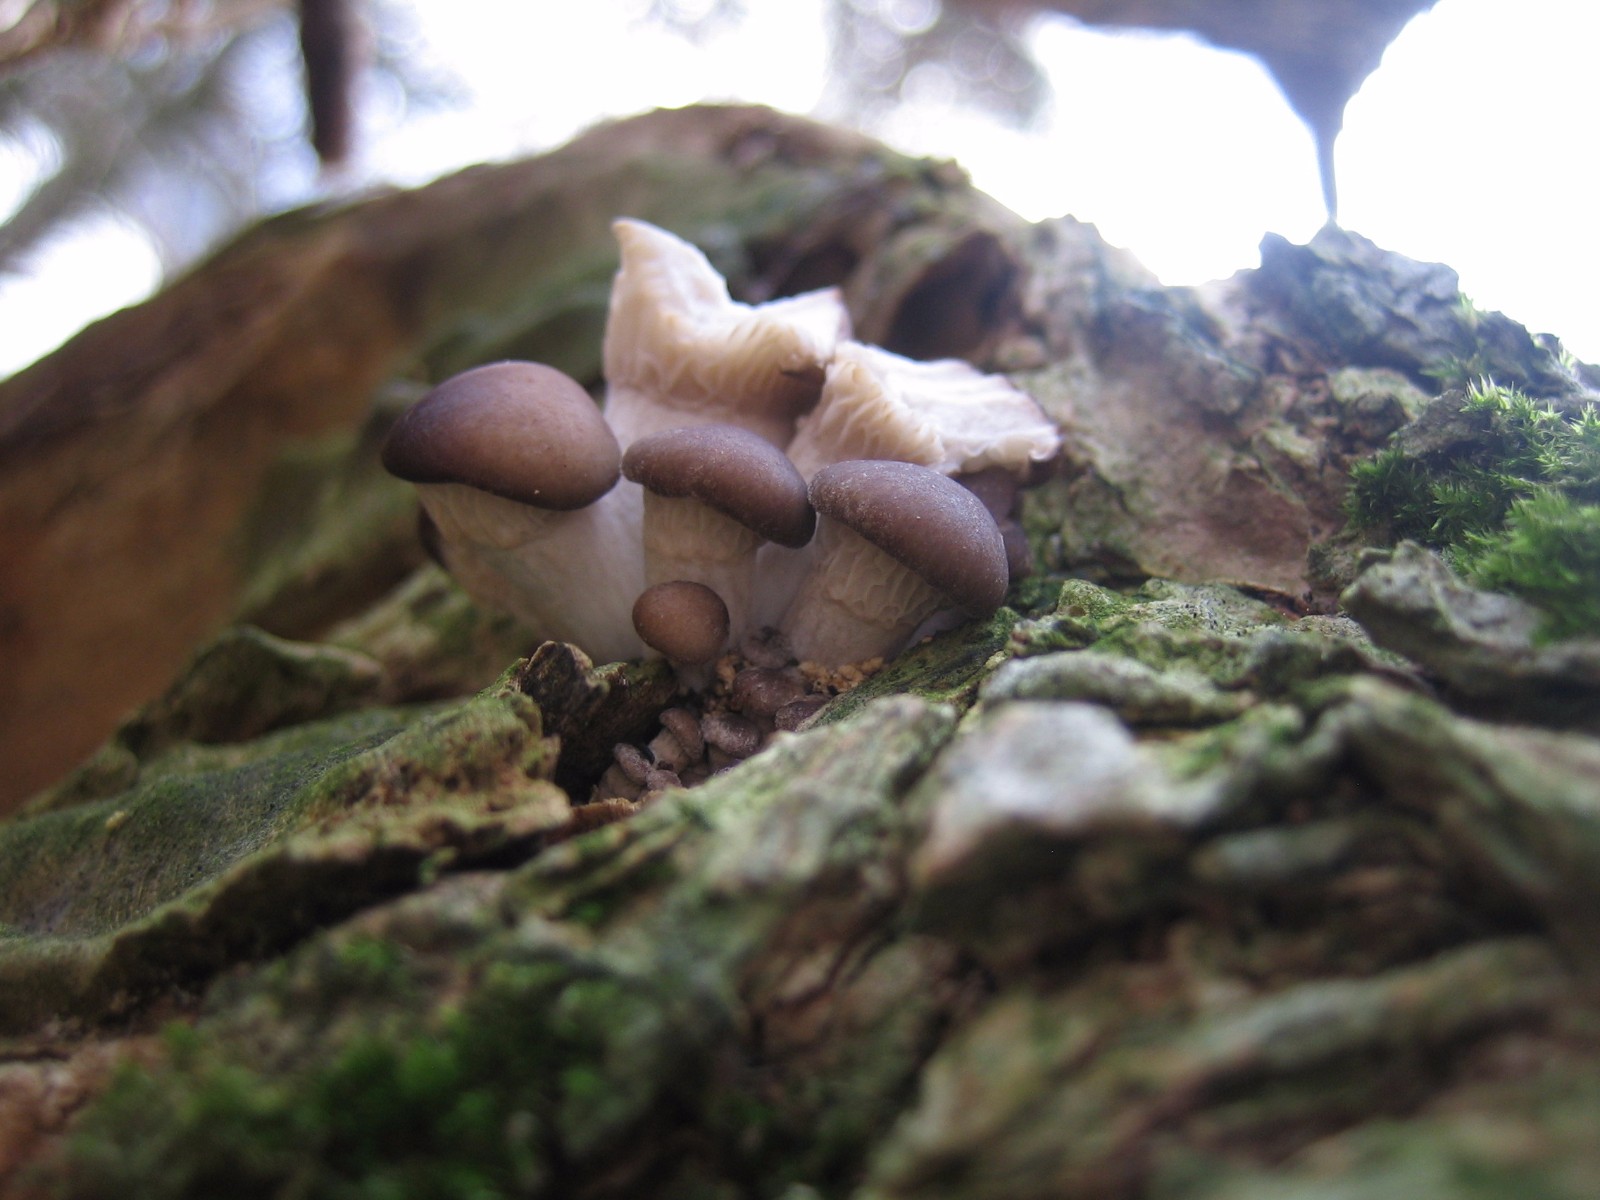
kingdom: Fungi
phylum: Basidiomycota
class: Agaricomycetes
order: Agaricales
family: Pleurotaceae
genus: Pleurotus
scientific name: Pleurotus ostreatus
